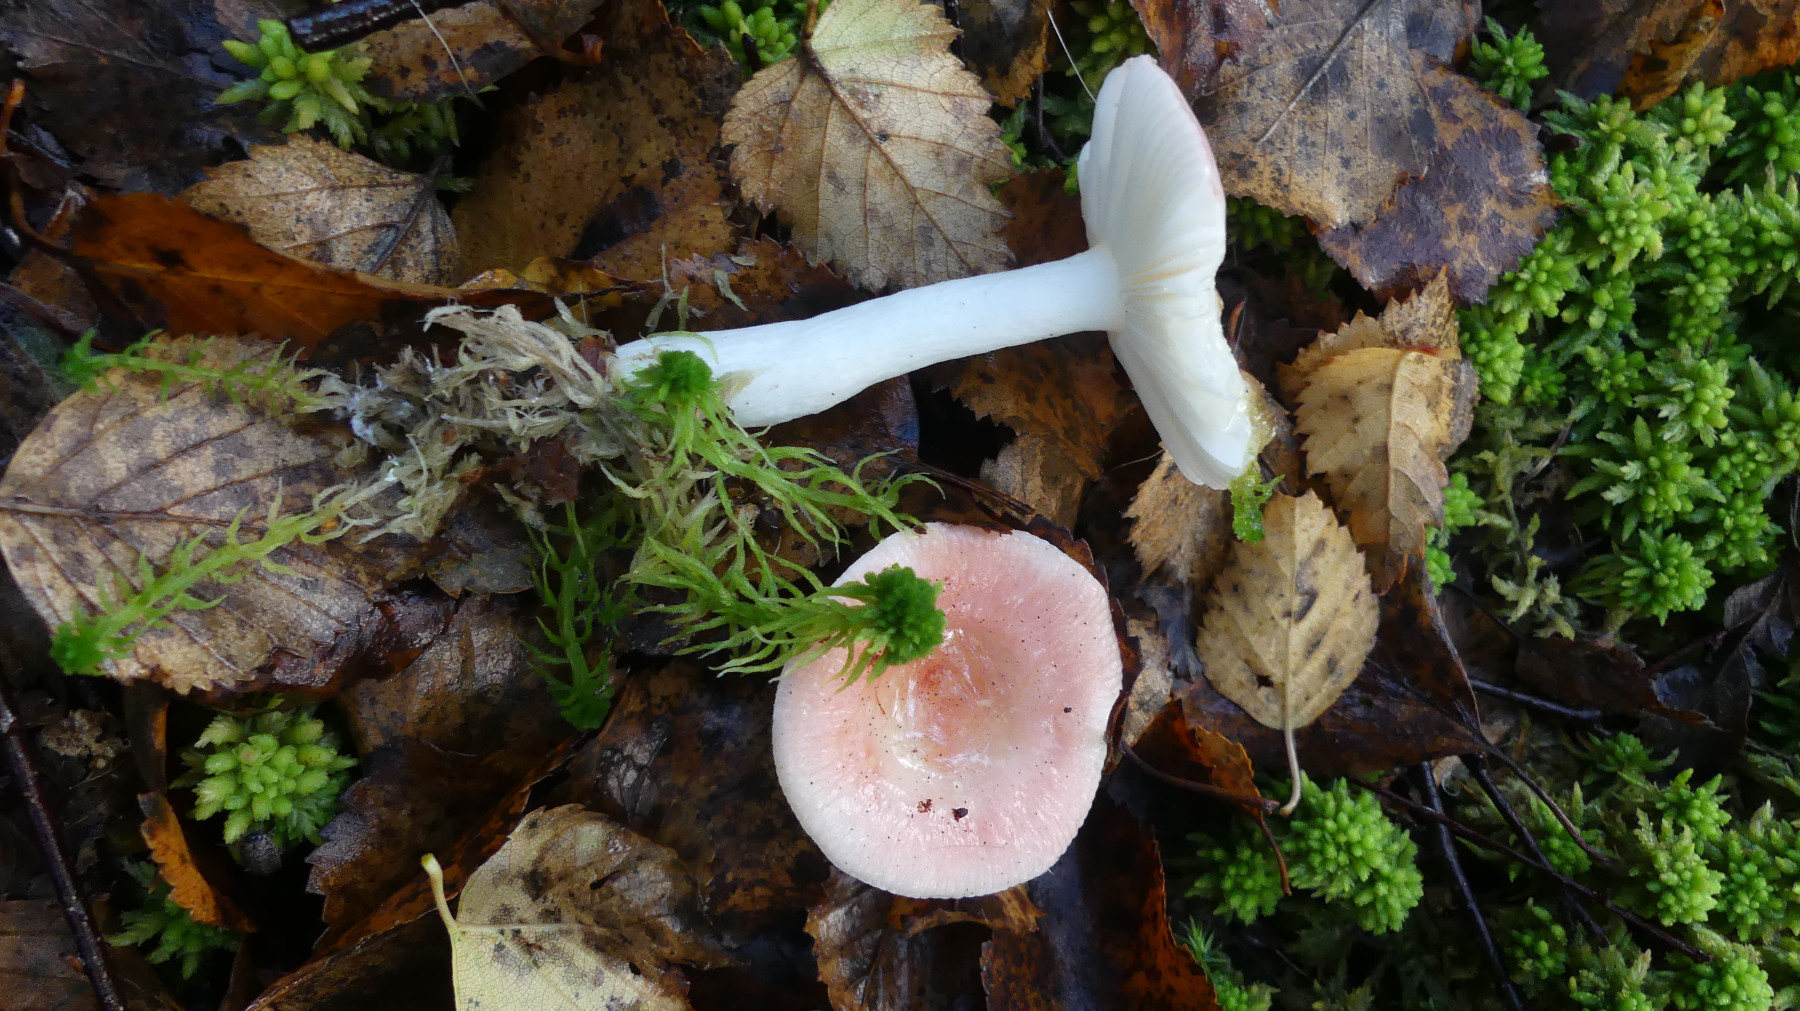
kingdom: Fungi
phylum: Basidiomycota
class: Agaricomycetes
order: Russulales
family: Russulaceae
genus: Russula
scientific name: Russula betularum
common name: bleg gift-skørhat
